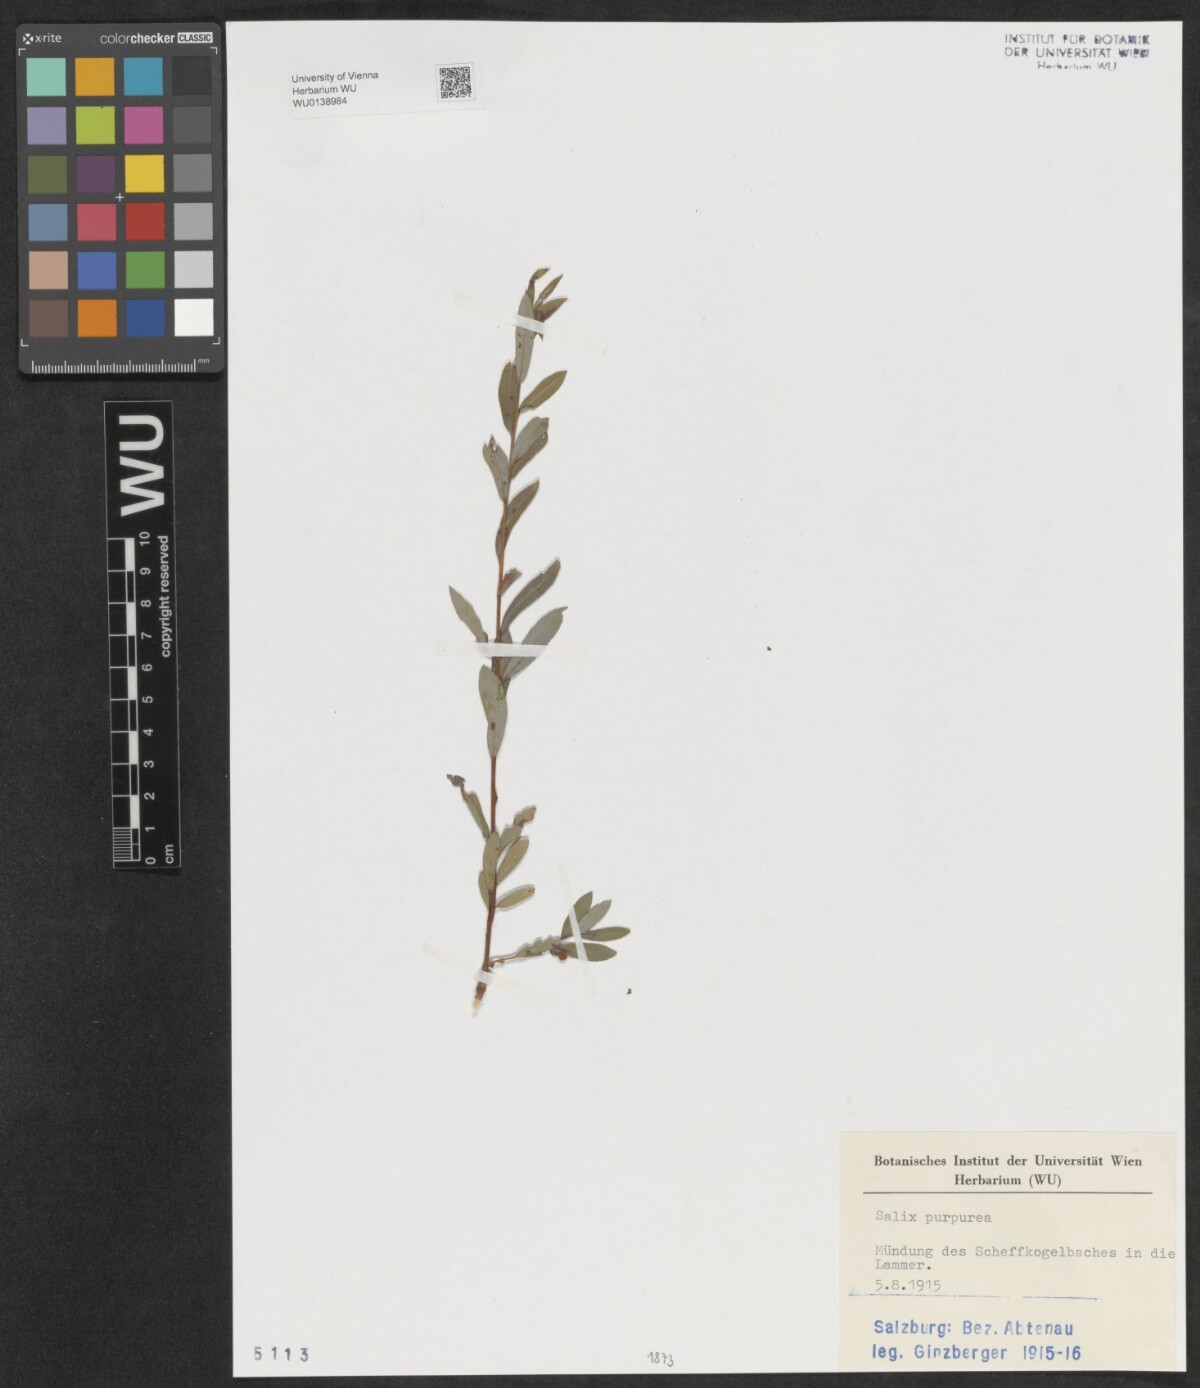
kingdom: Plantae
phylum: Tracheophyta
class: Magnoliopsida
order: Malpighiales
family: Salicaceae
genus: Salix
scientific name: Salix purpurea
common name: Purple willow
